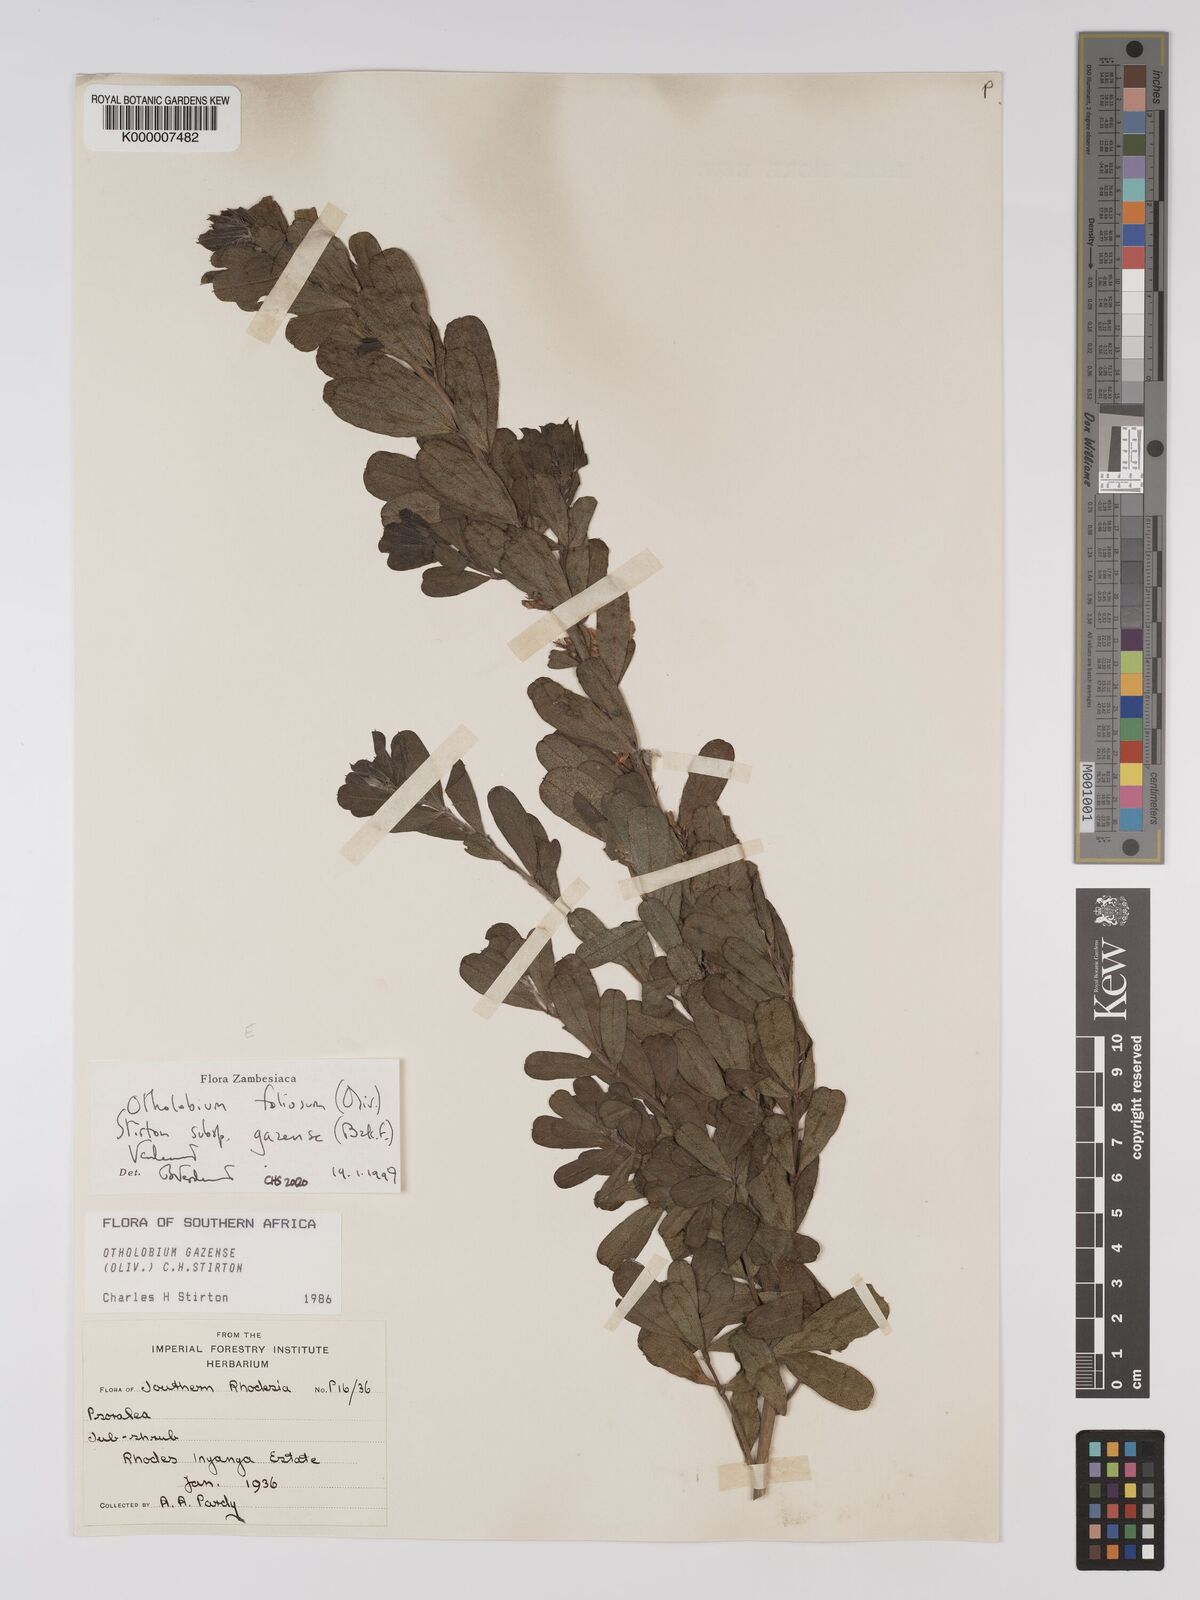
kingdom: Plantae
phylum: Tracheophyta
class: Magnoliopsida
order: Fabales
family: Fabaceae
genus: Psoralea
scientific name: Psoralea foliosa
